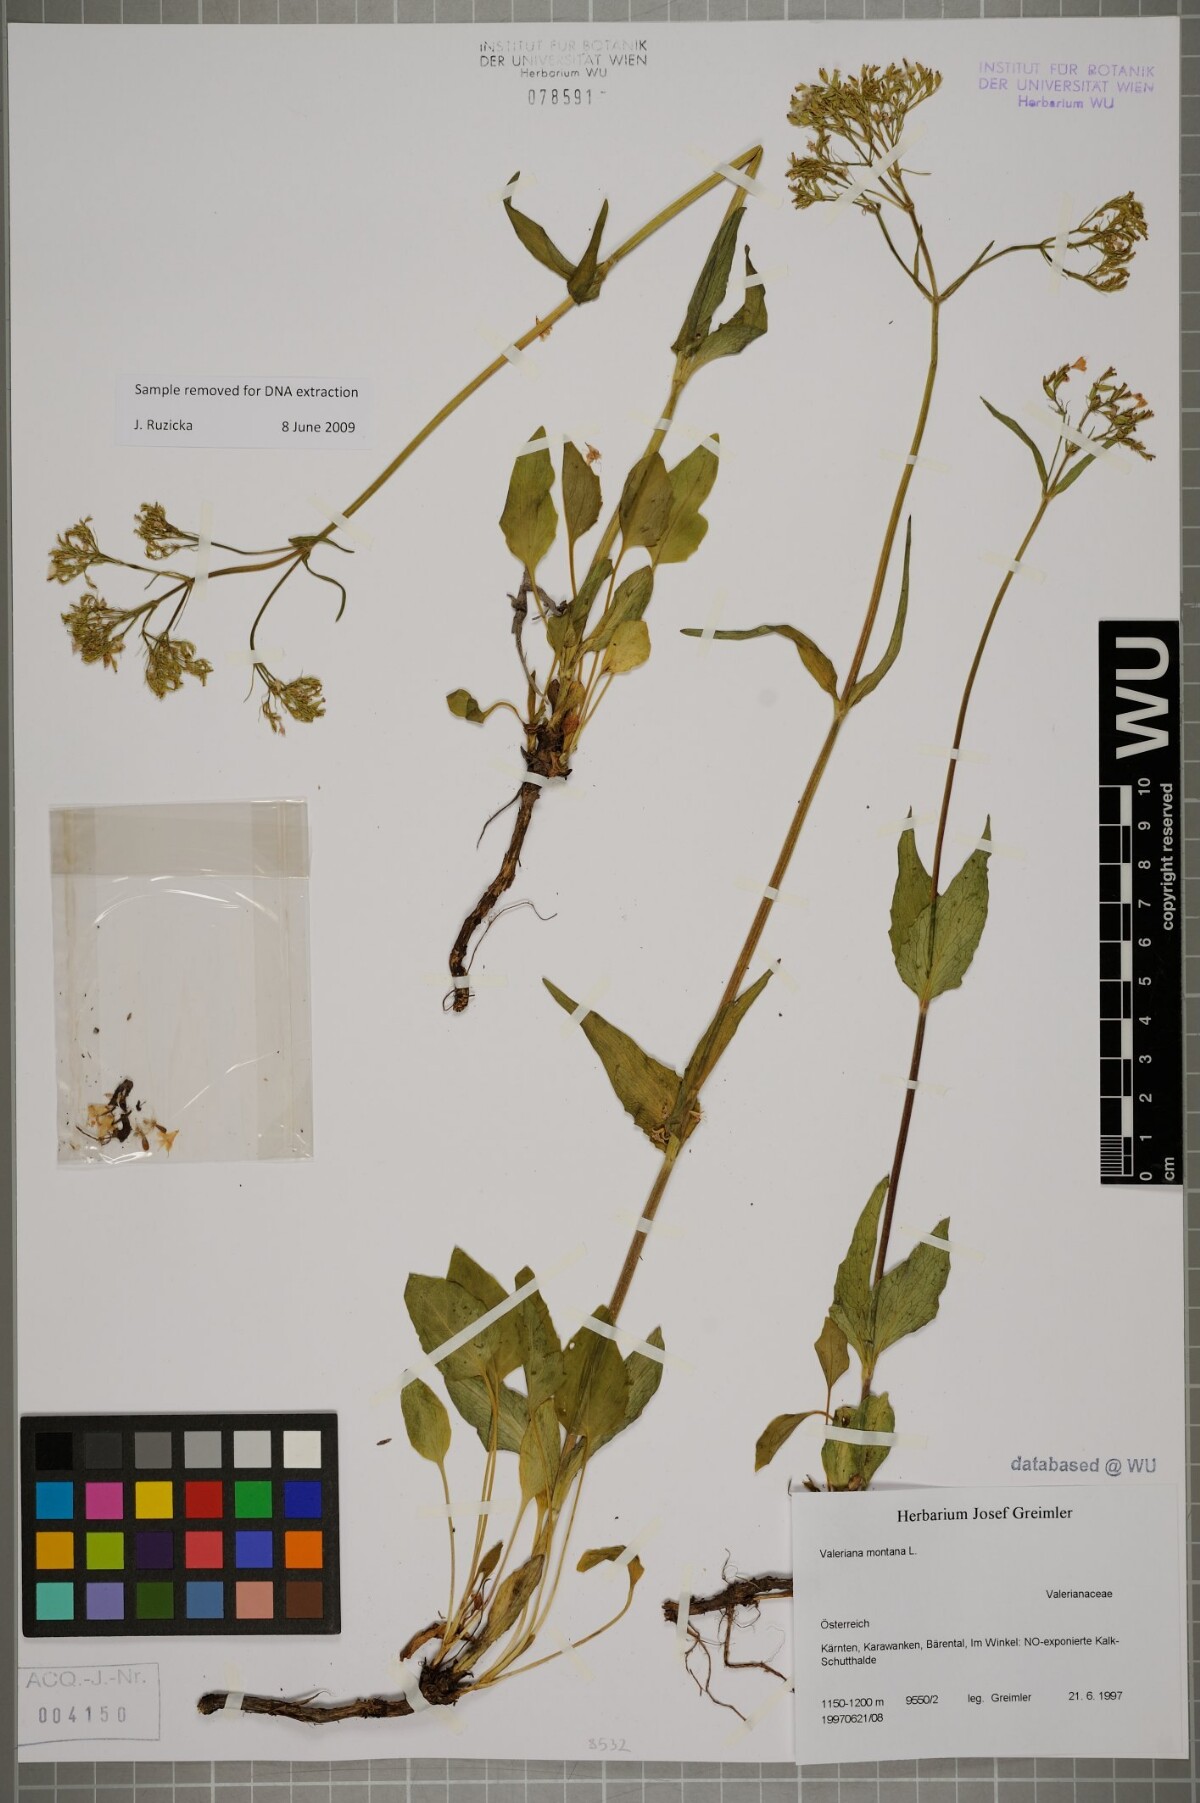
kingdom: Plantae
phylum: Tracheophyta
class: Magnoliopsida
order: Dipsacales
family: Caprifoliaceae
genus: Valeriana
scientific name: Valeriana montana
